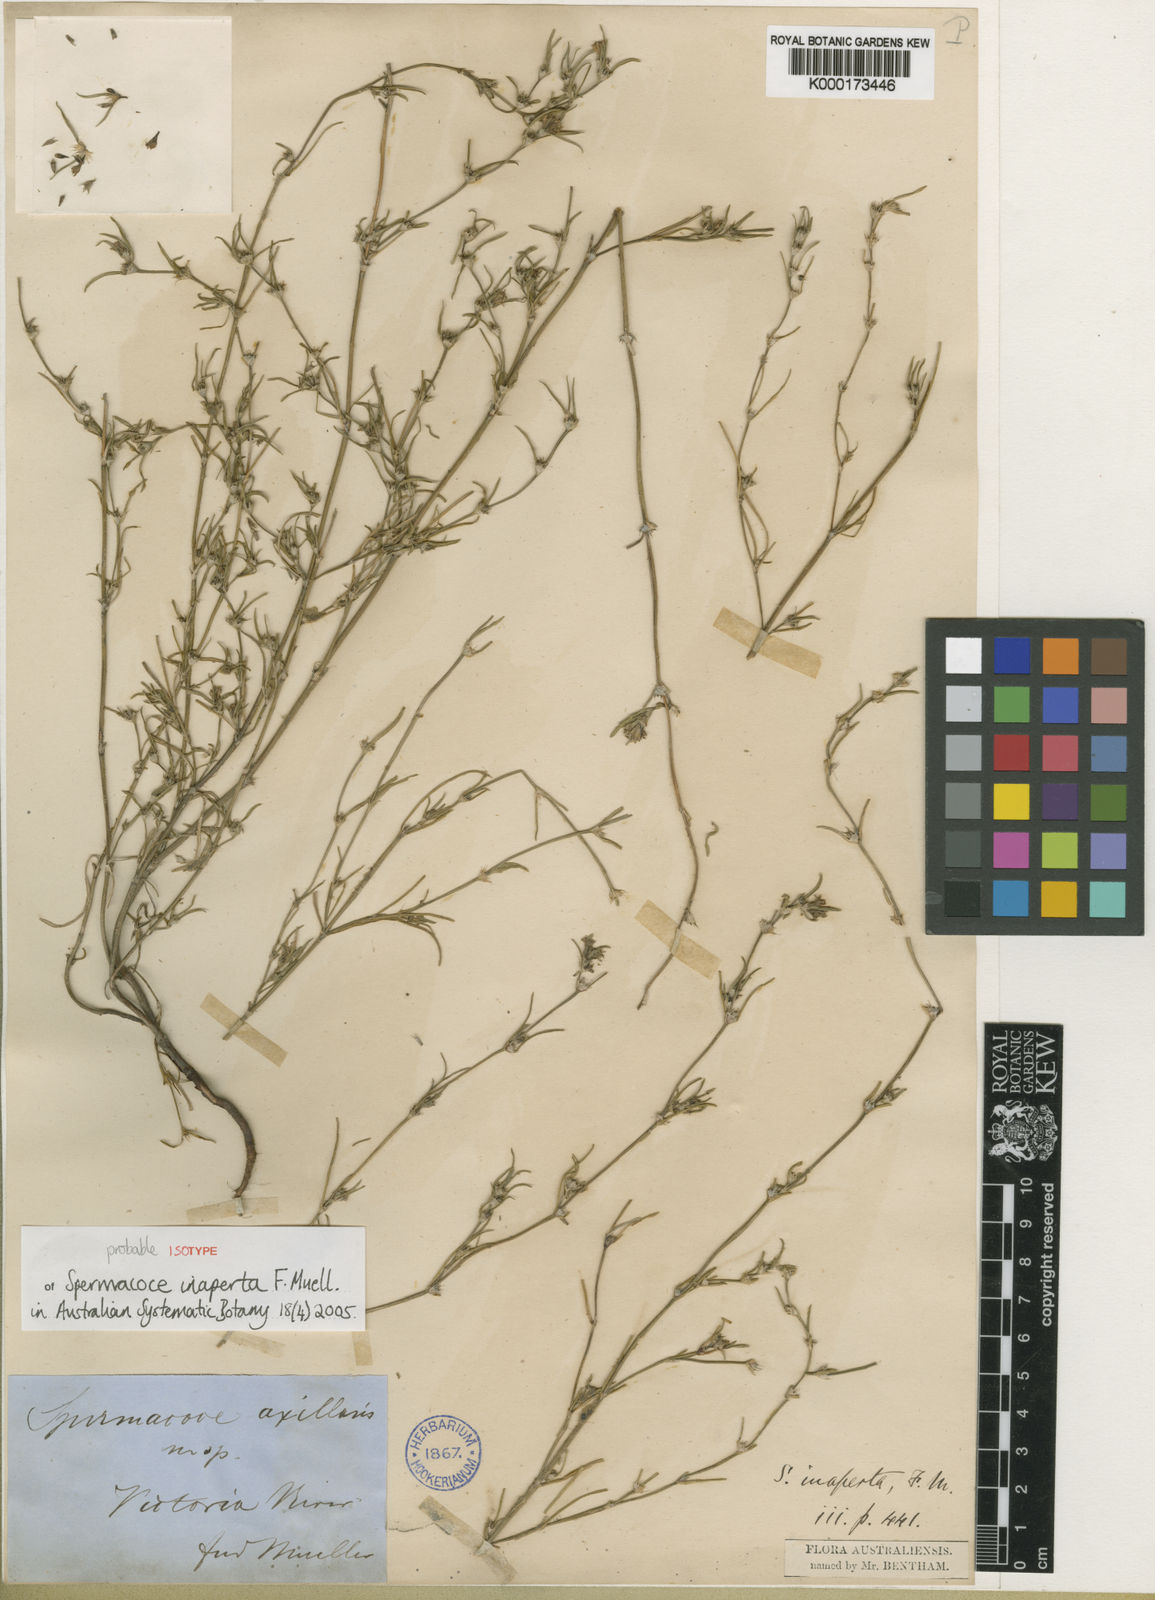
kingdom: Plantae
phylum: Tracheophyta
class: Magnoliopsida
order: Gentianales
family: Rubiaceae
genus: Spermacoce
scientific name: Spermacoce inaperta
